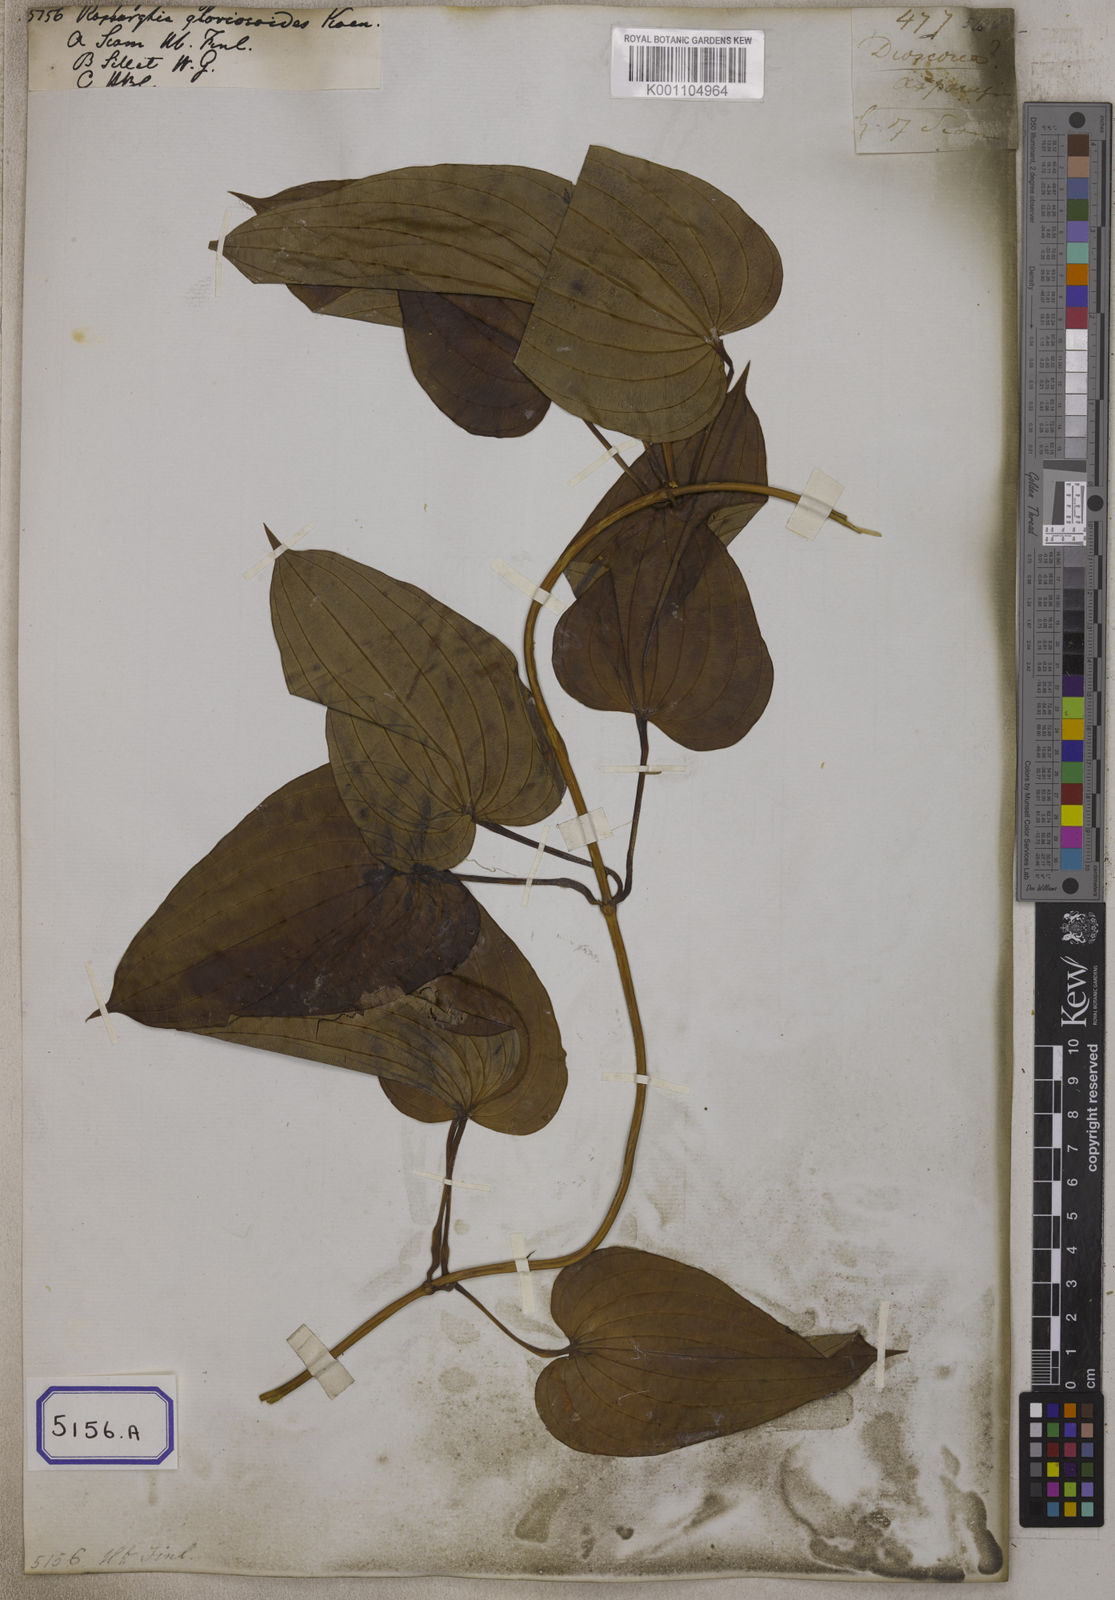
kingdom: Plantae
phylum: Tracheophyta
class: Liliopsida
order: Pandanales
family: Stemonaceae
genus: Stemona
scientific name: Stemona tuberosa
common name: Stemona
